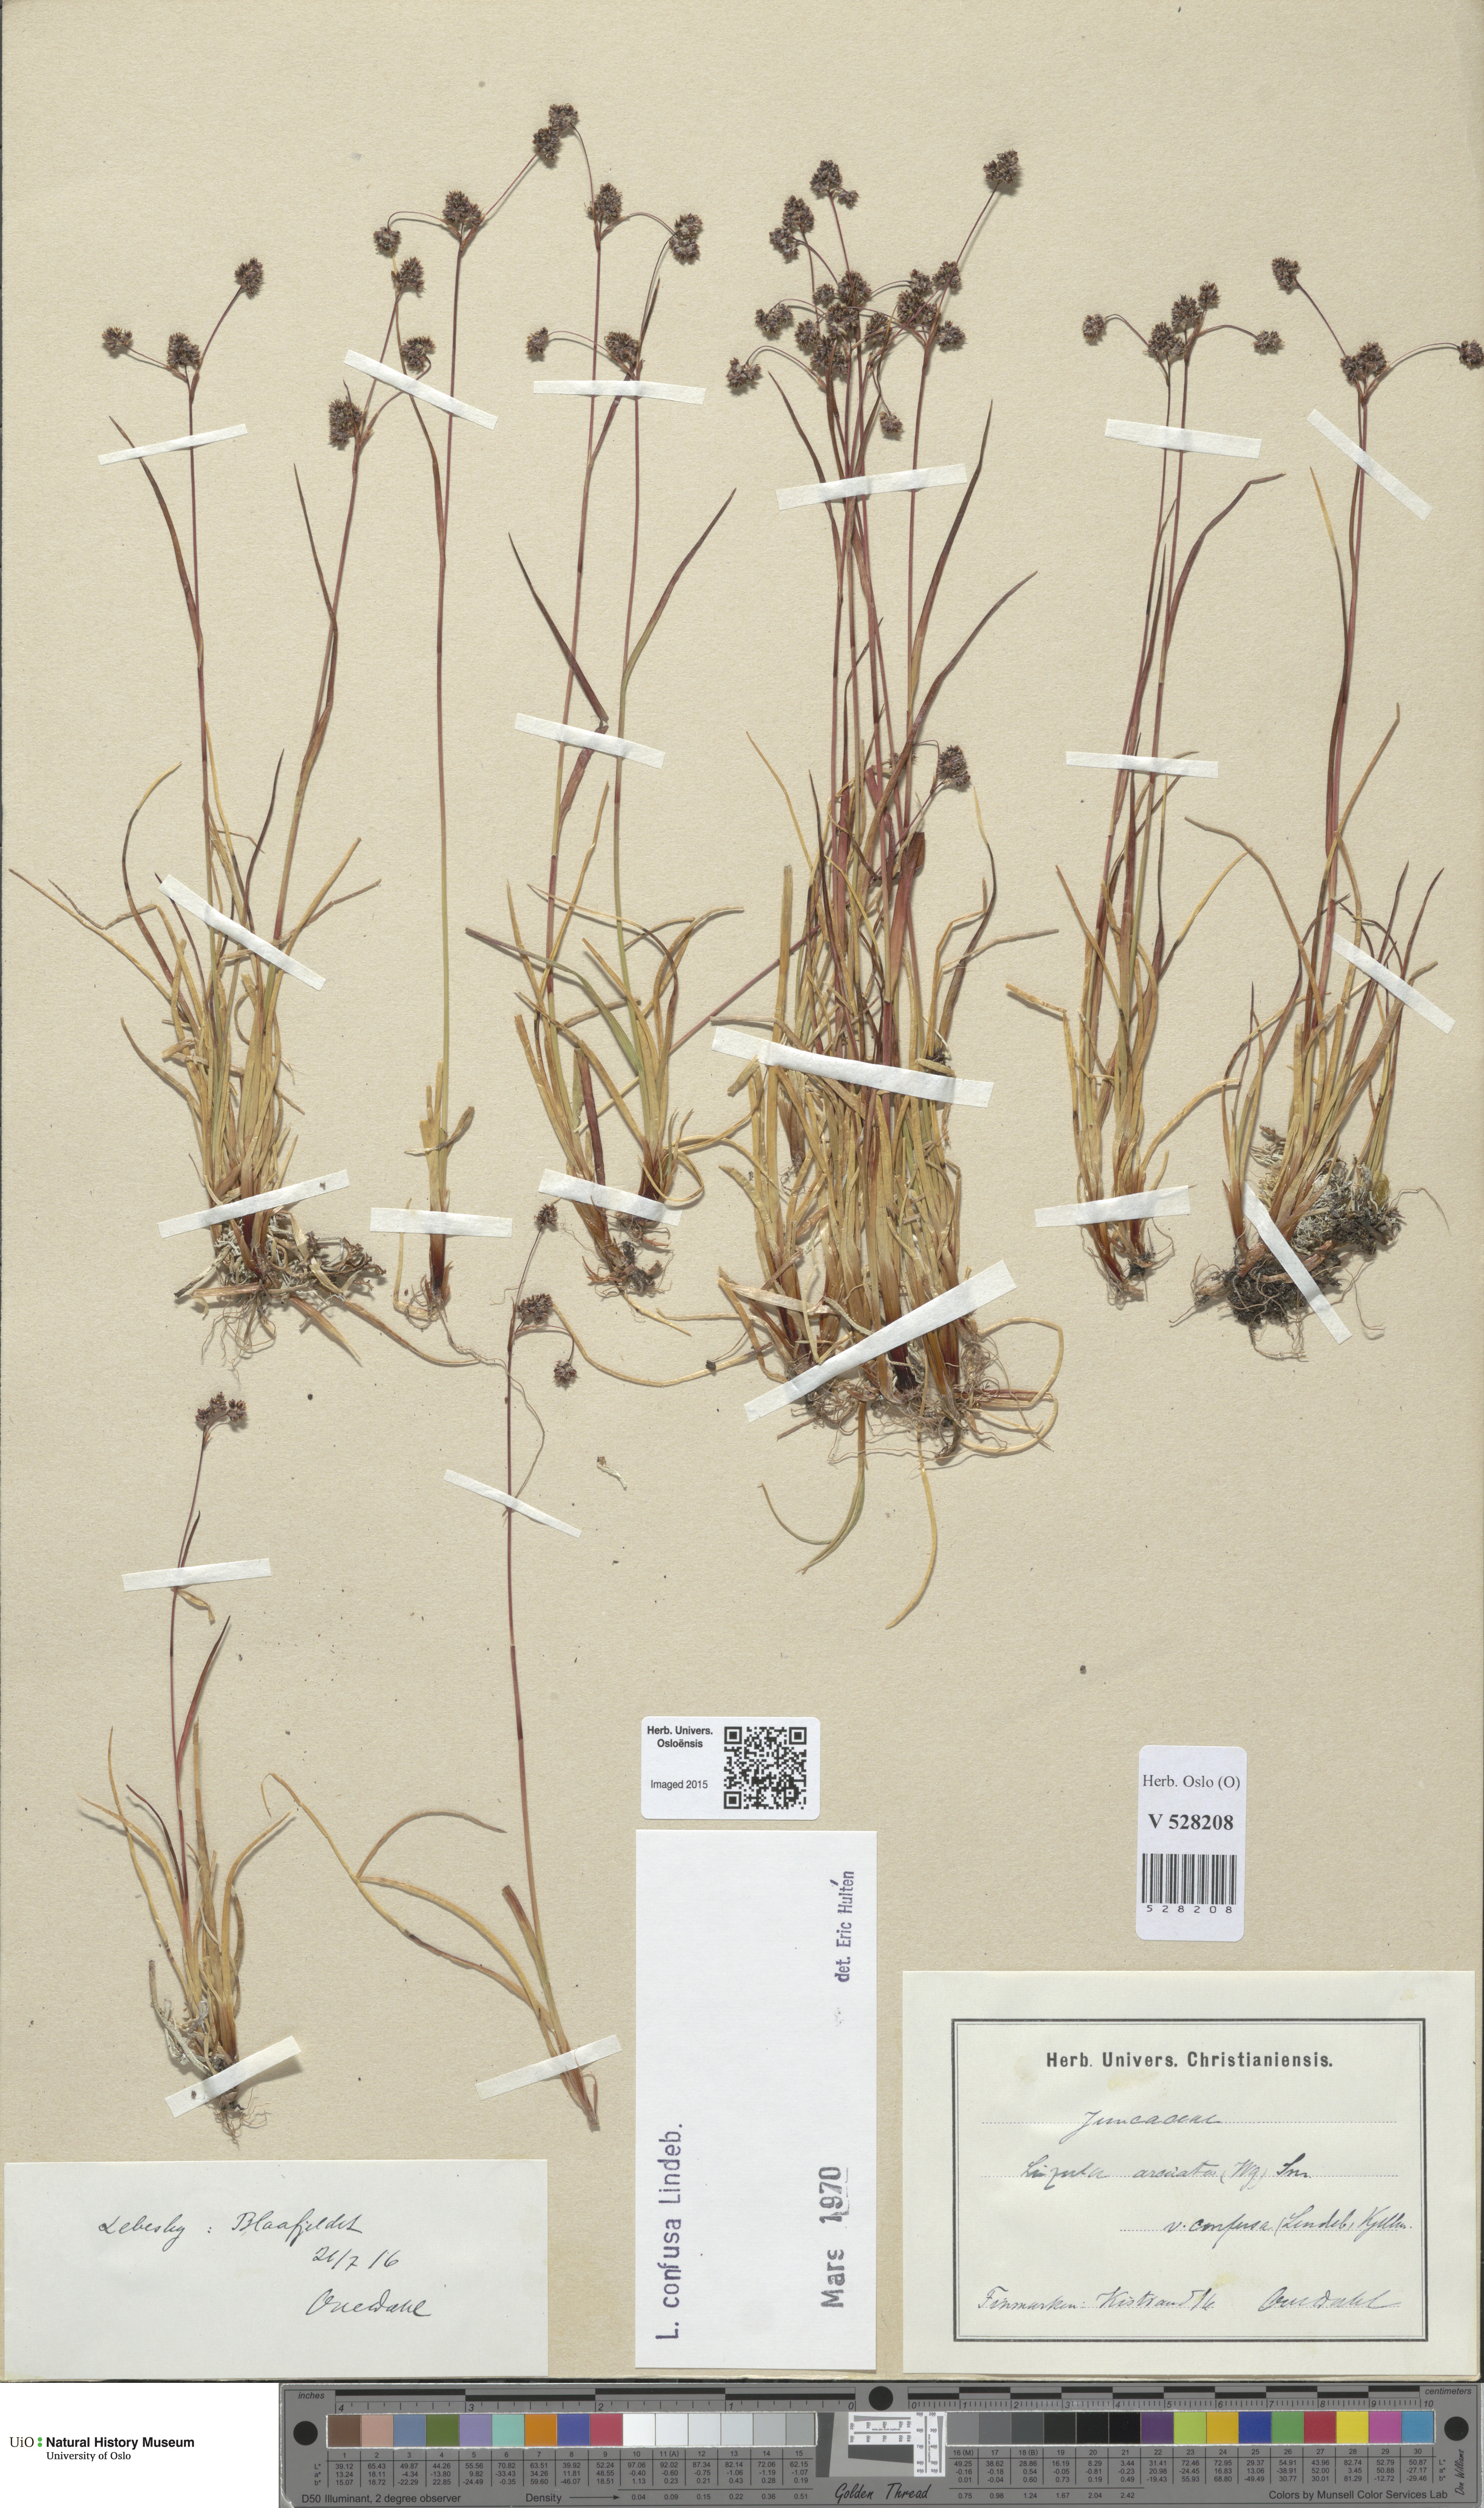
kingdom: Plantae
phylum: Tracheophyta
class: Liliopsida
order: Poales
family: Juncaceae
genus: Luzula
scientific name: Luzula confusa
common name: Northern wood rush
